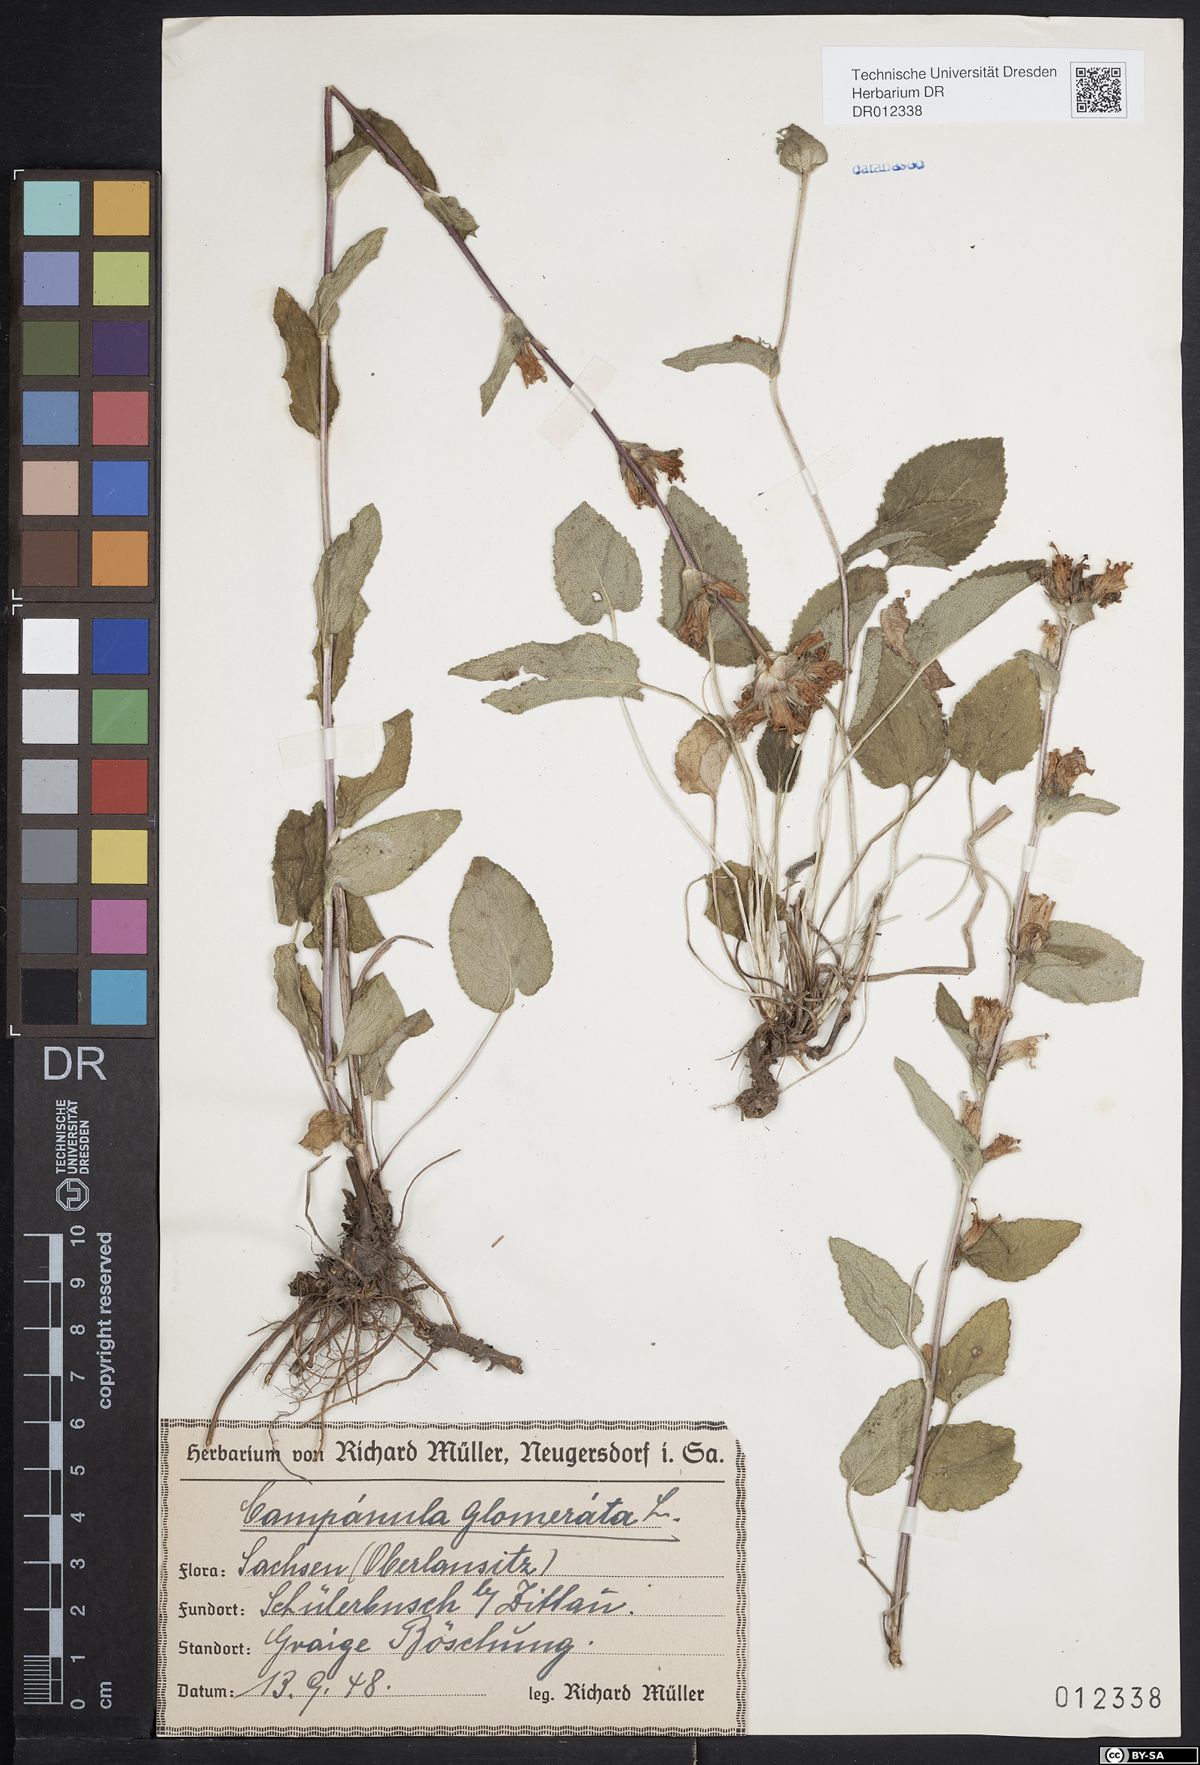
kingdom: Plantae
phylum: Tracheophyta
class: Magnoliopsida
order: Asterales
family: Campanulaceae
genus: Campanula
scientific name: Campanula glomerata
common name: Clustered bellflower
